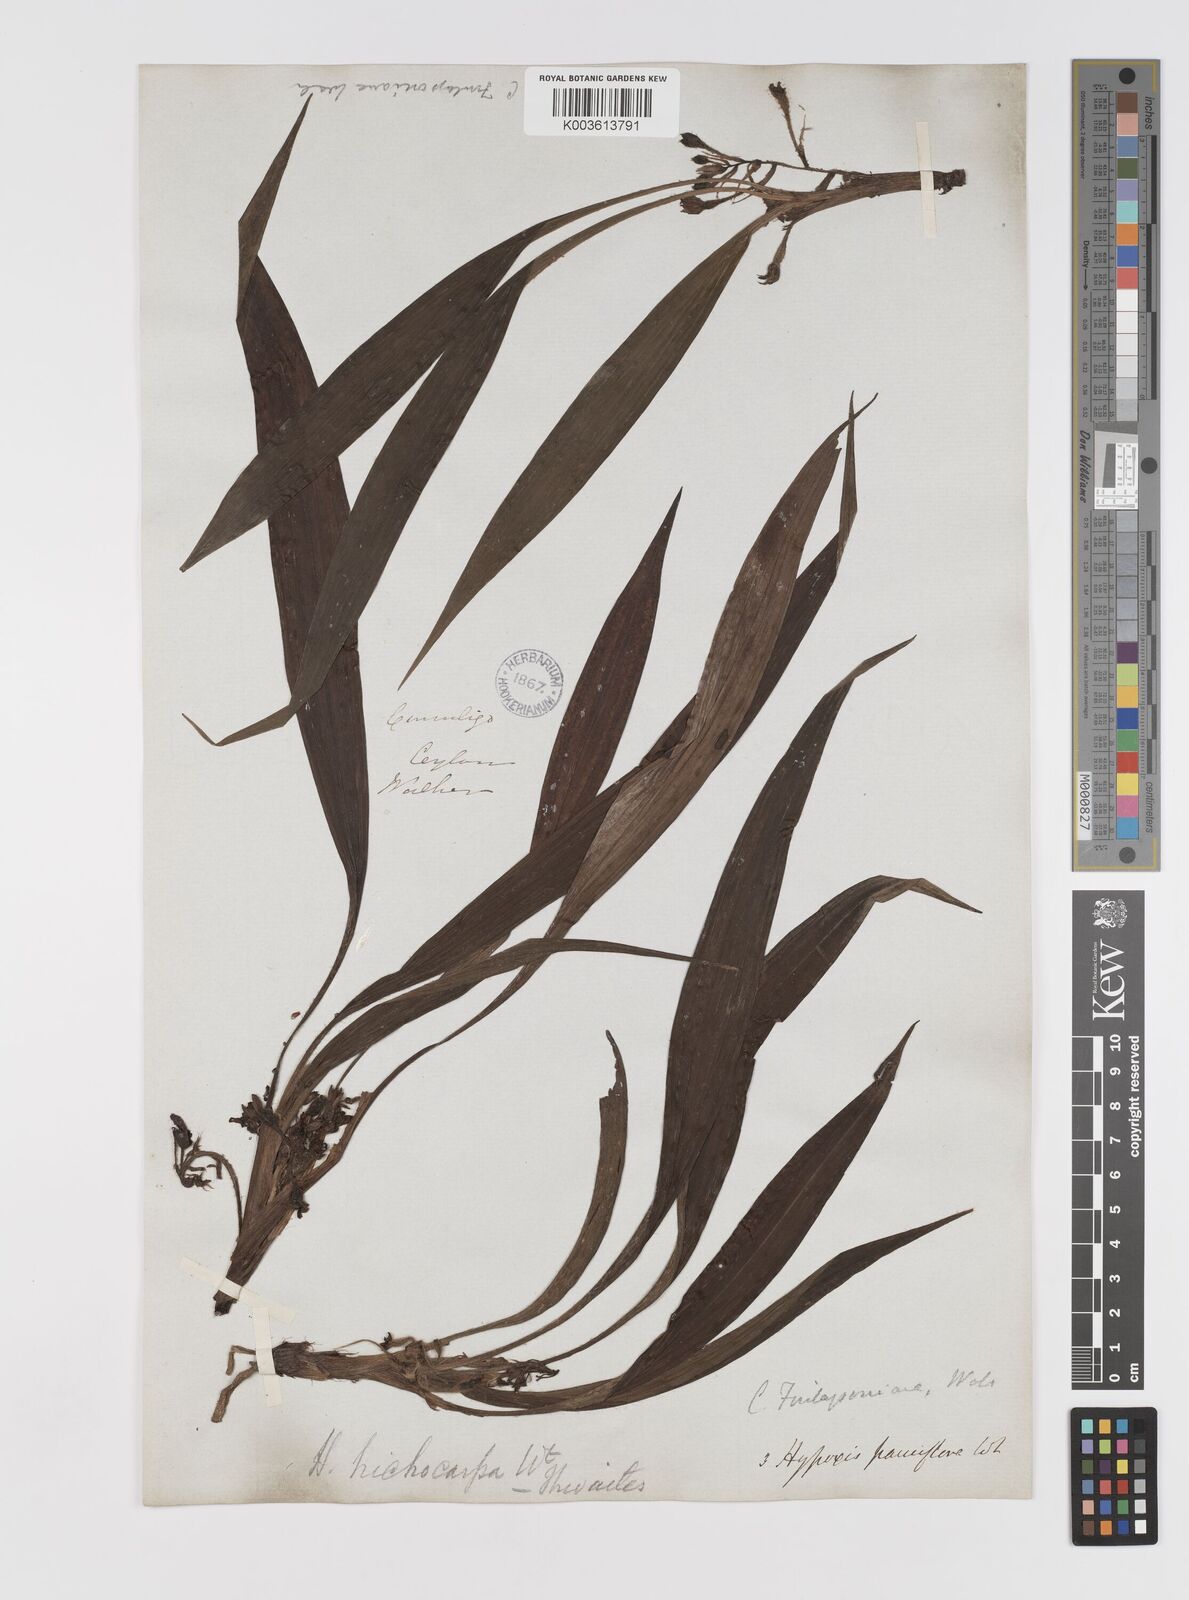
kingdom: Plantae
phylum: Tracheophyta
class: Liliopsida
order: Asparagales
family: Hypoxidaceae
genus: Curculigo
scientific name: Curculigo trichocarpa
